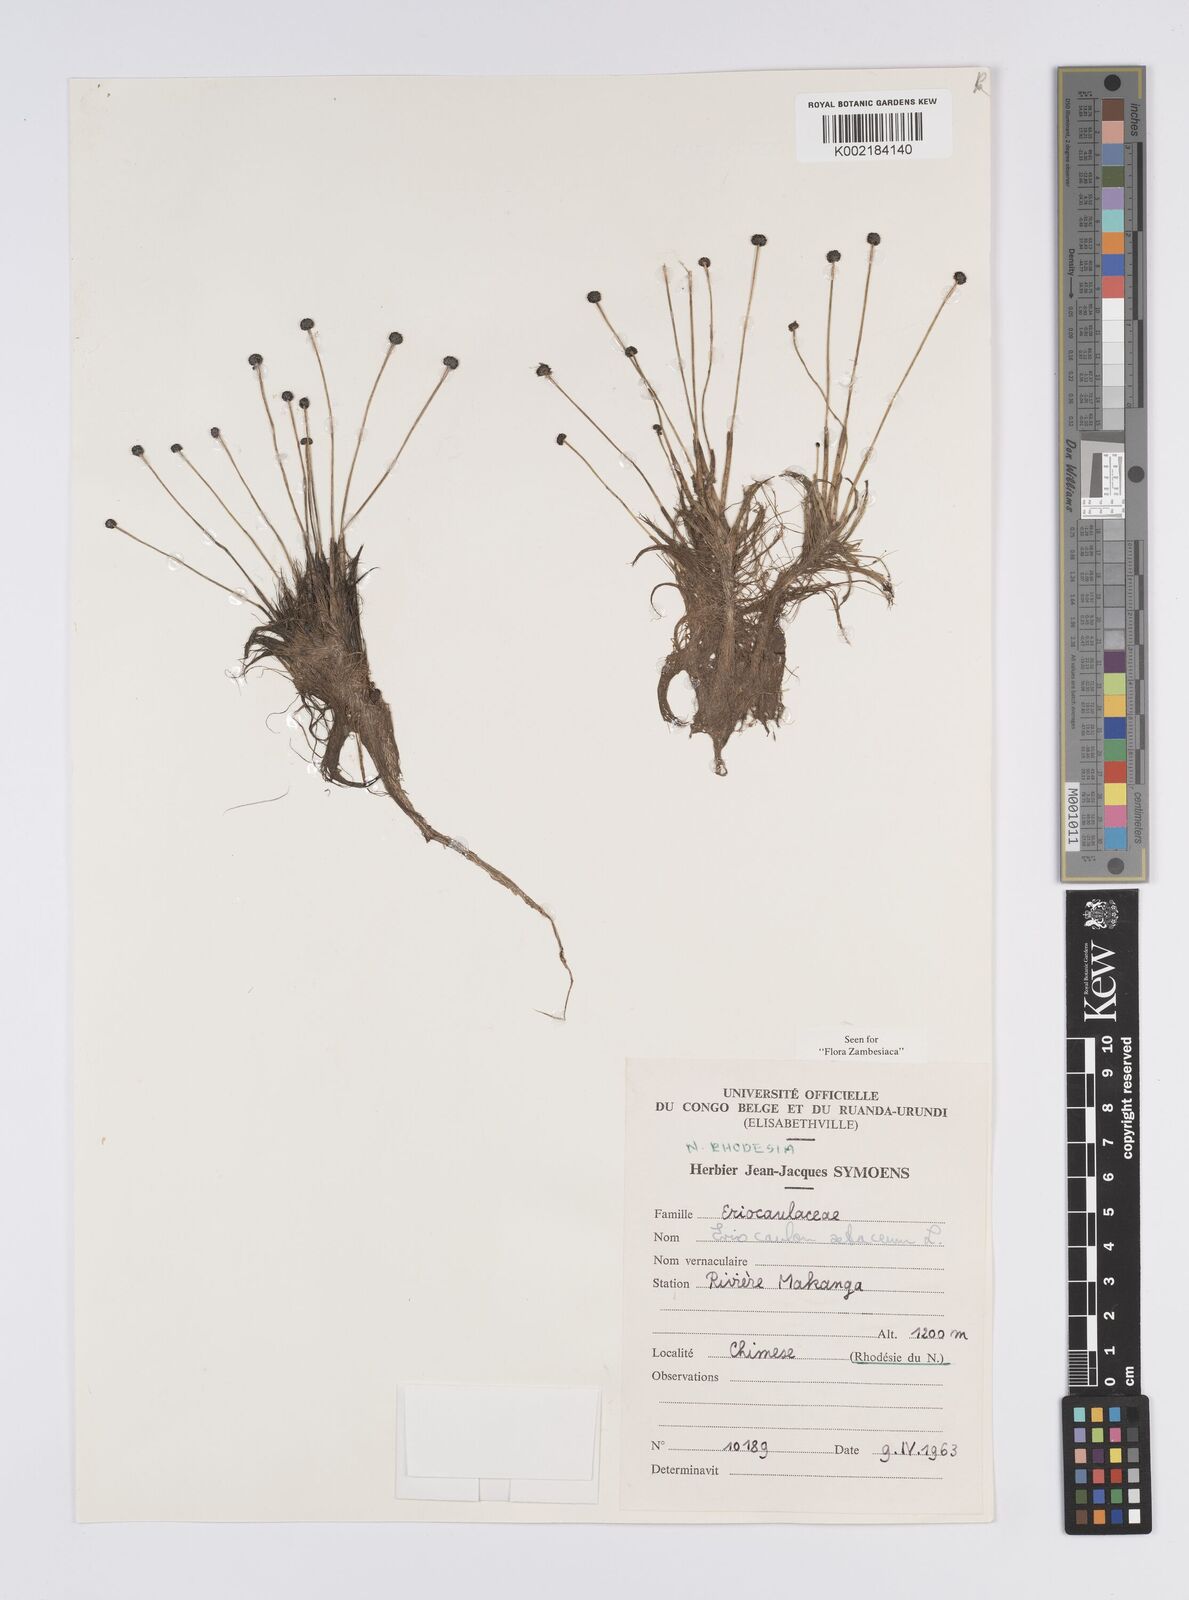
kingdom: Plantae
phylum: Tracheophyta
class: Liliopsida
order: Poales
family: Eriocaulaceae
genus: Eriocaulon
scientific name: Eriocaulon setaceum
